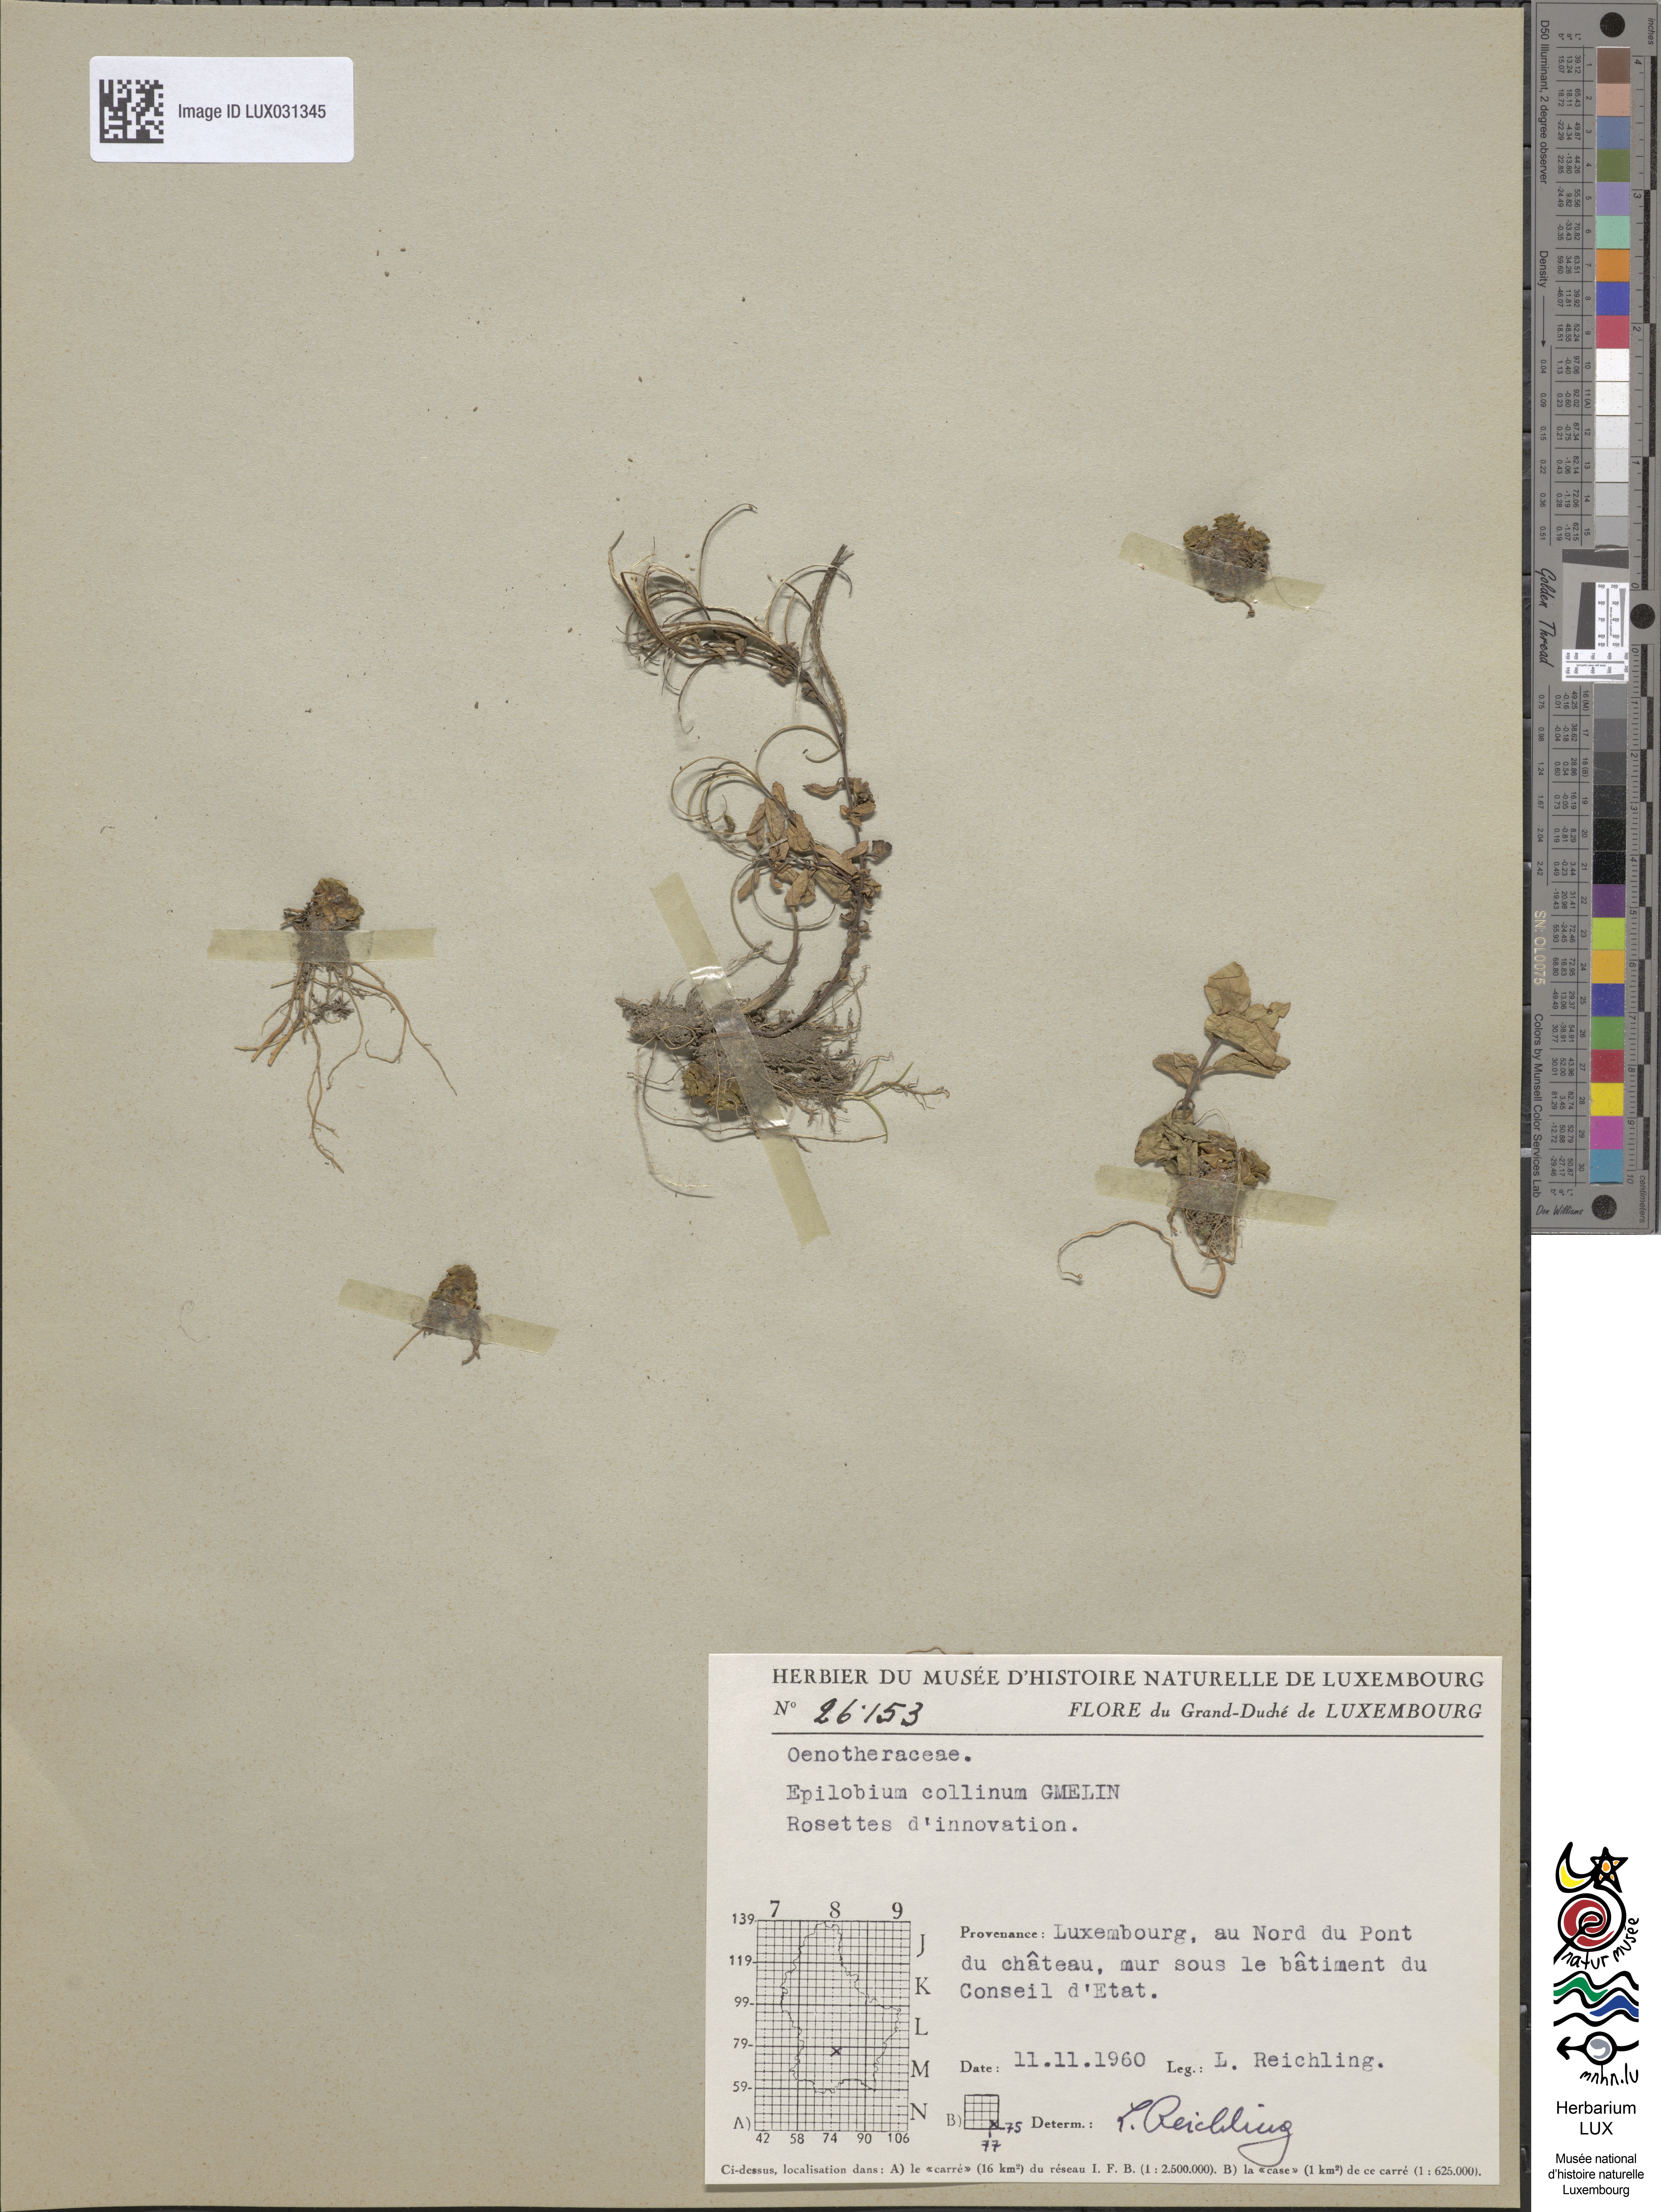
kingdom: Plantae
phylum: Tracheophyta
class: Magnoliopsida
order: Myrtales
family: Onagraceae
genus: Epilobium
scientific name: Epilobium collinum
